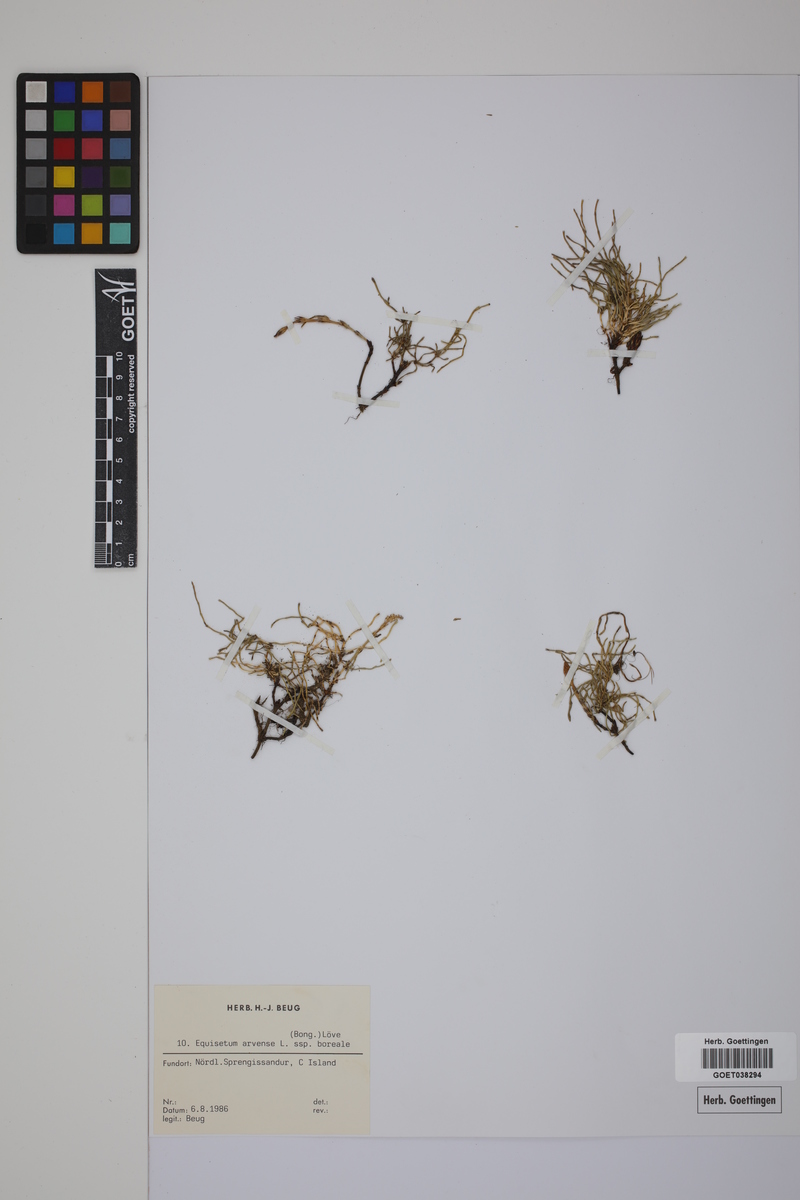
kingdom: Plantae
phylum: Tracheophyta
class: Polypodiopsida
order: Equisetales
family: Equisetaceae
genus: Equisetum
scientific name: Equisetum arvense
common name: Field horsetail
